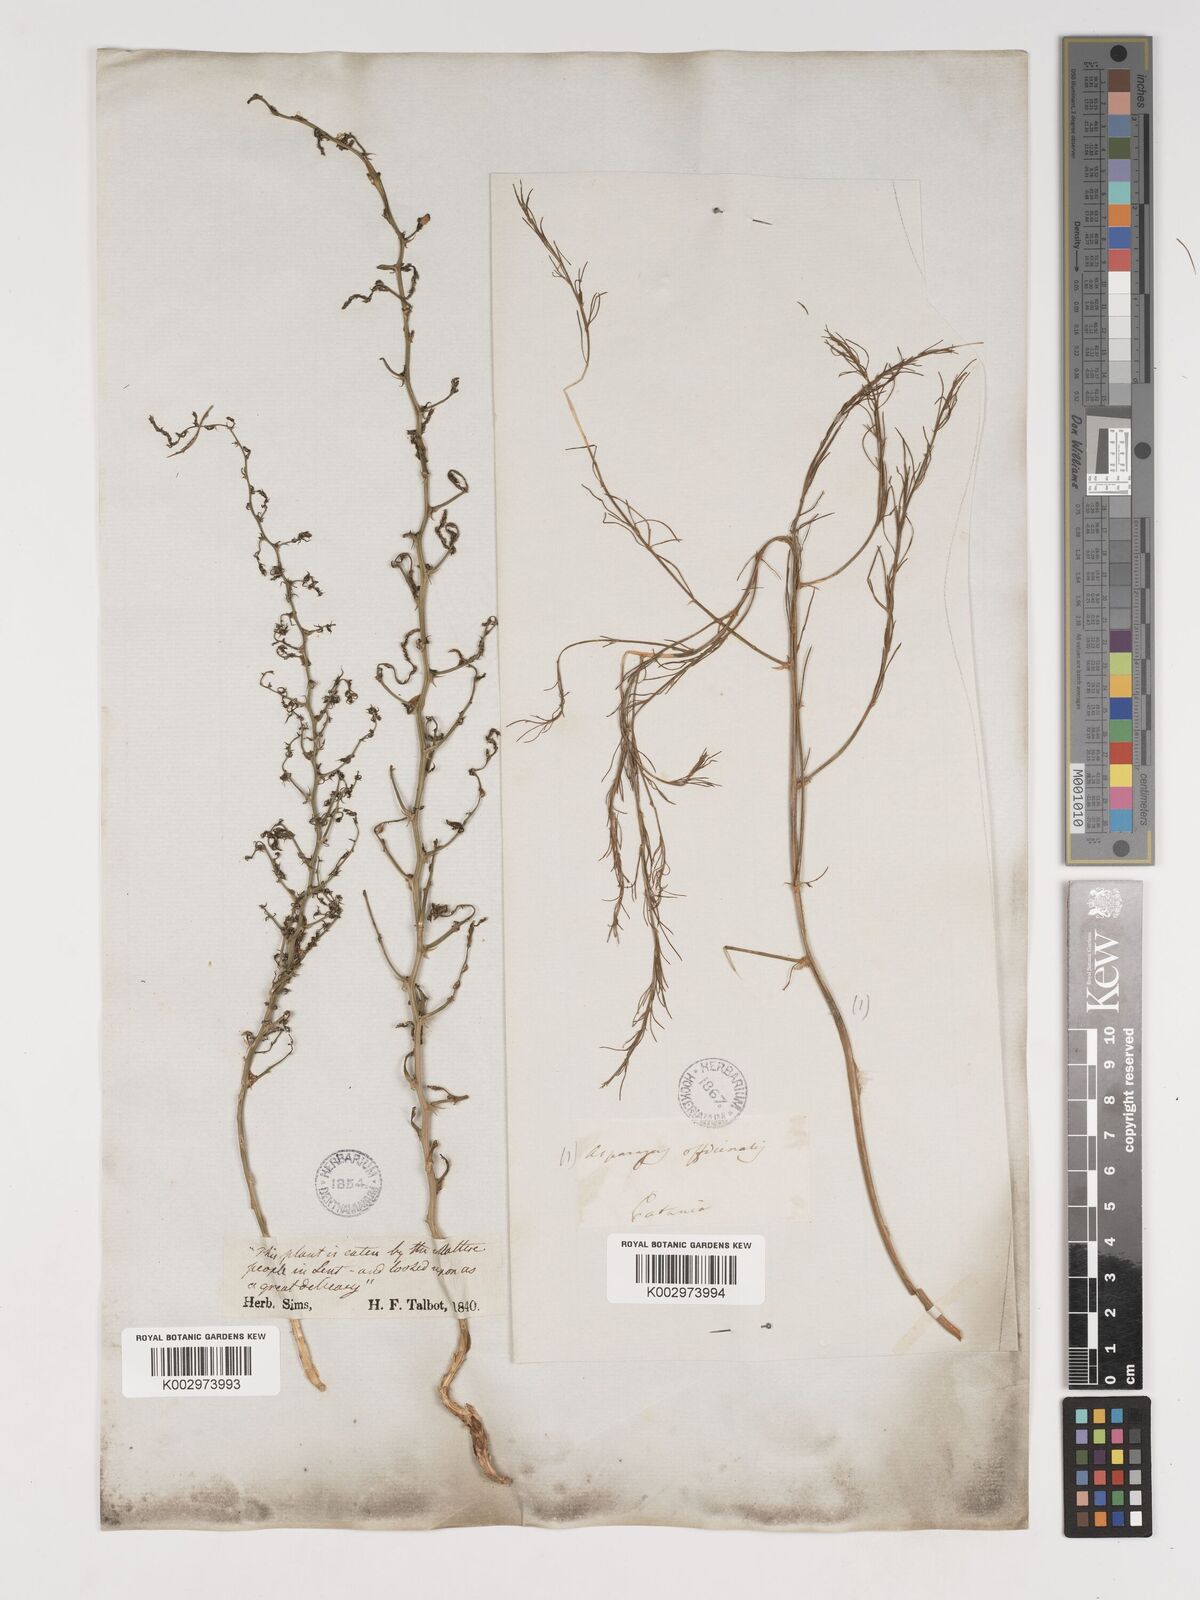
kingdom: Plantae
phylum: Tracheophyta
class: Liliopsida
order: Asparagales
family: Asparagaceae
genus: Asparagus
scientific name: Asparagus officinalis
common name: Garden asparagus
